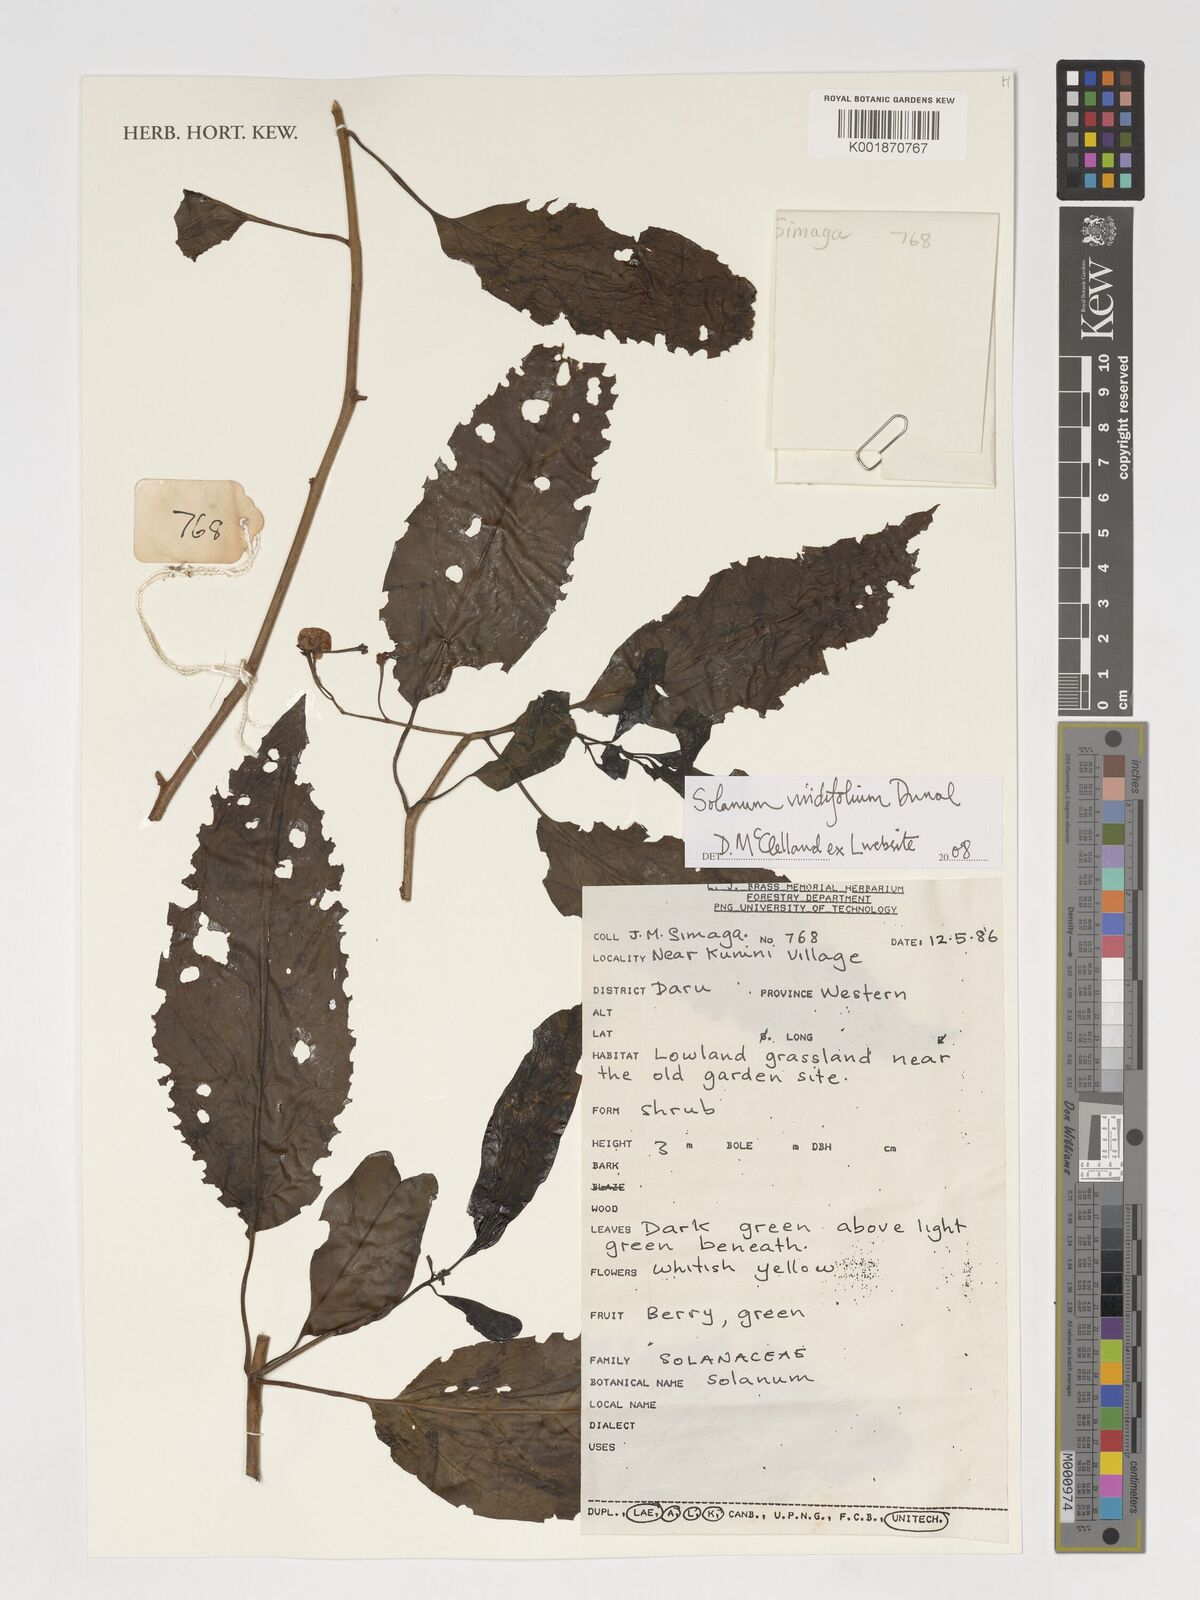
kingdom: Plantae
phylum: Tracheophyta
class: Magnoliopsida
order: Solanales
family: Solanaceae
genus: Solanum
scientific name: Solanum viridifolium
